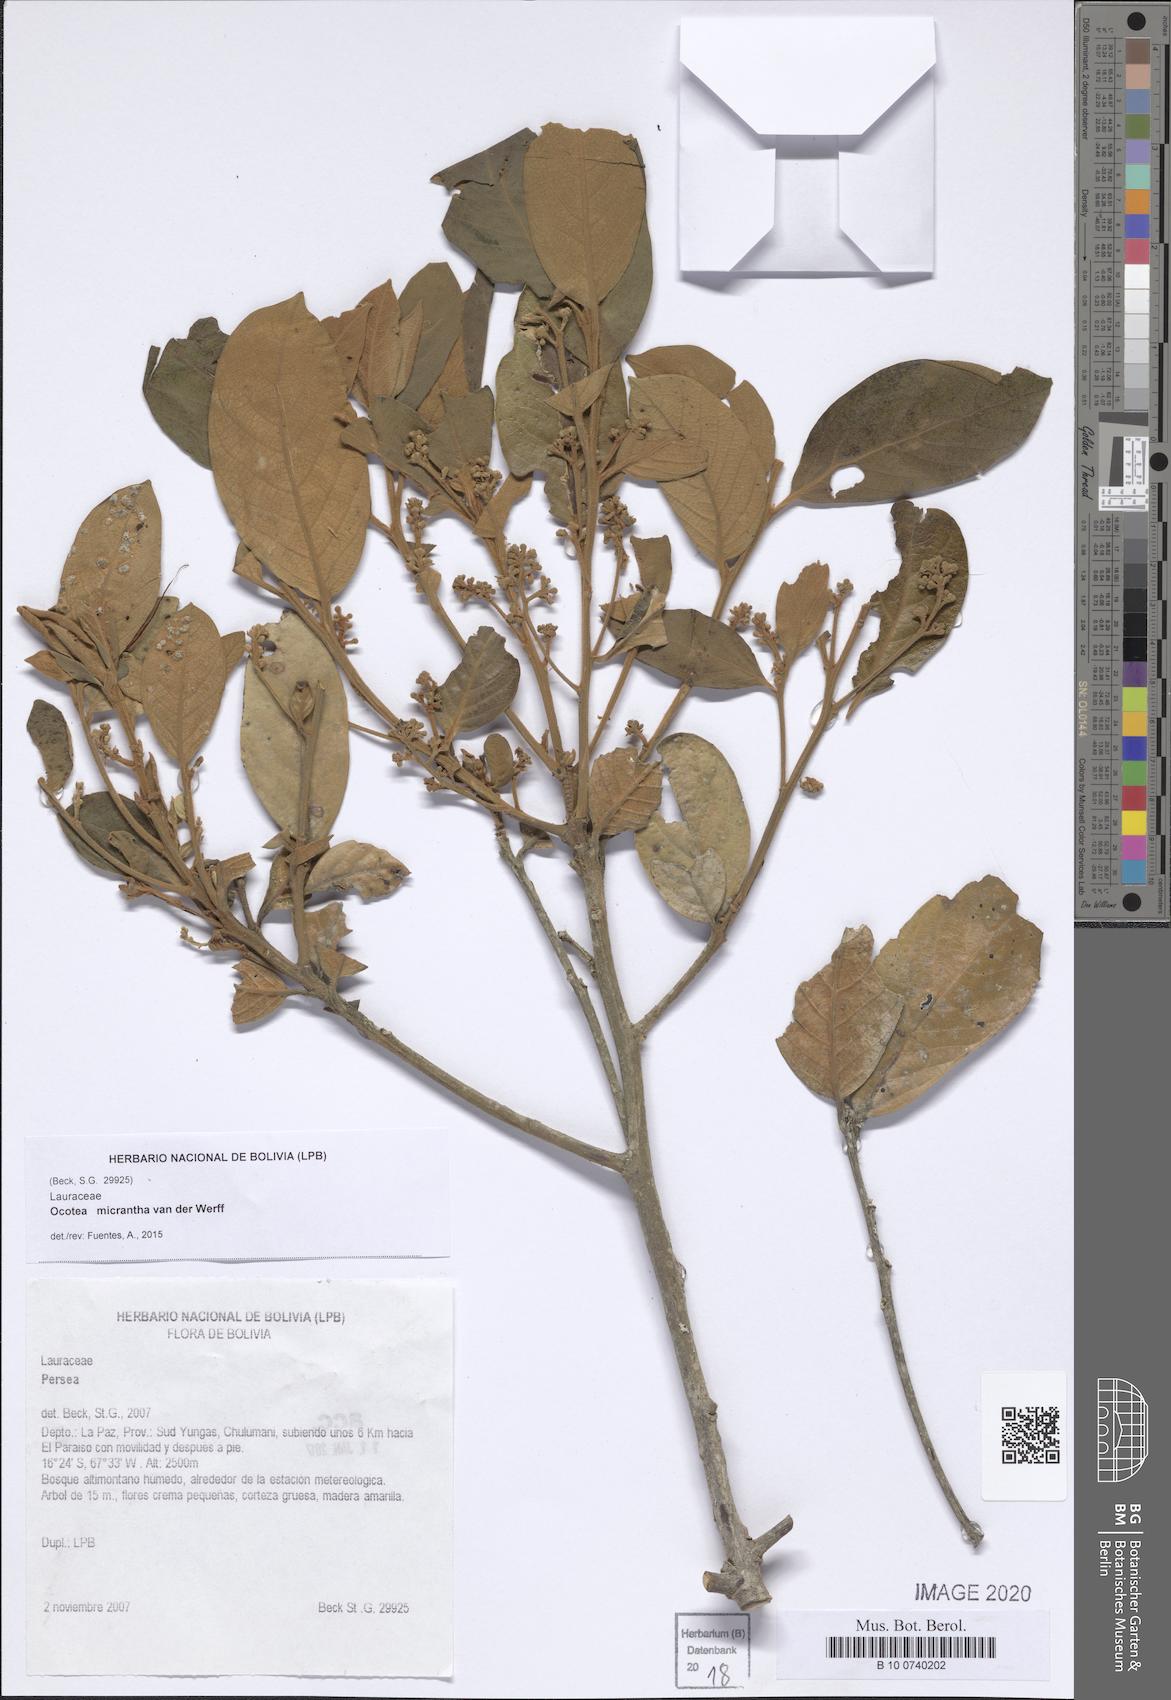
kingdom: Plantae
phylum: Tracheophyta
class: Magnoliopsida
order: Laurales
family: Lauraceae
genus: Ocotea
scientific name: Ocotea micrantha
